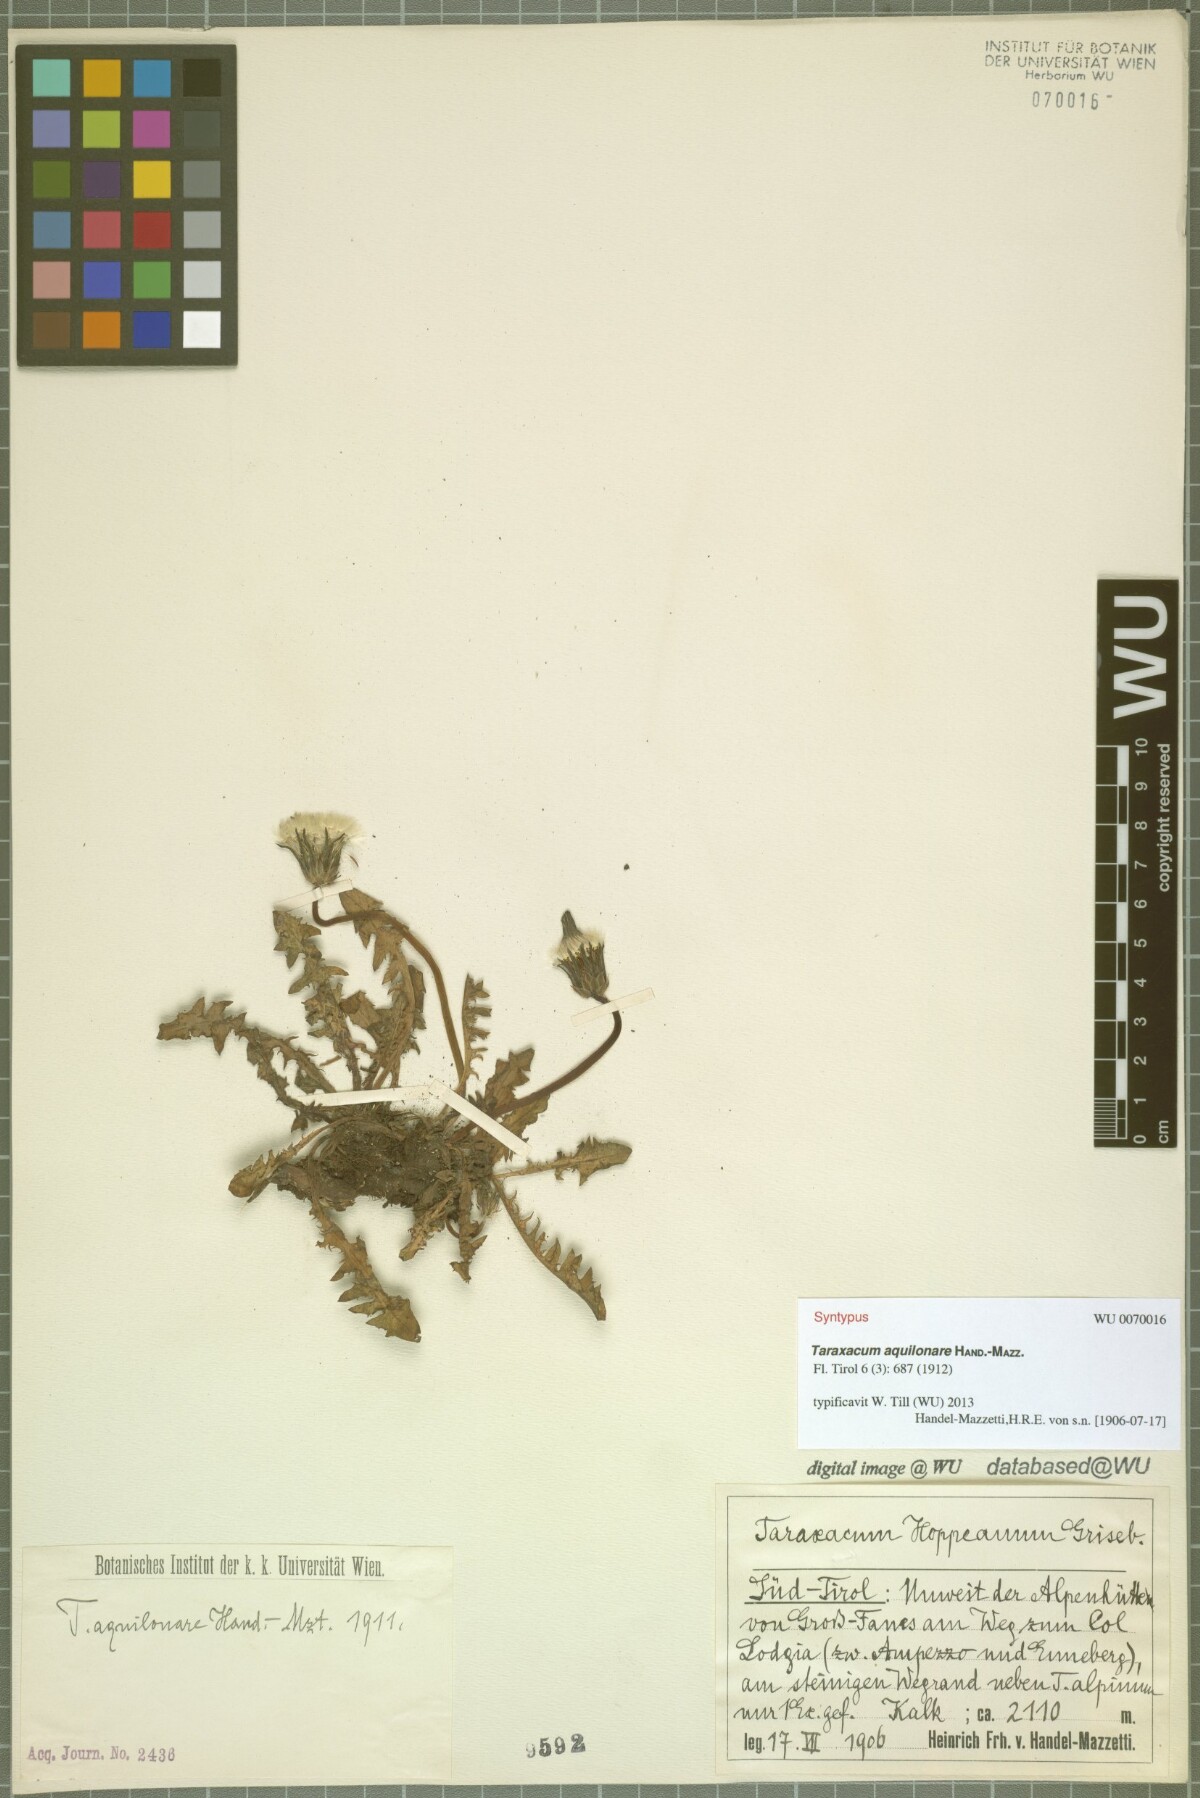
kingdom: Plantae
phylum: Tracheophyta
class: Magnoliopsida
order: Asterales
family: Asteraceae
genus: Taraxacum
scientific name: Taraxacum aquilonare
